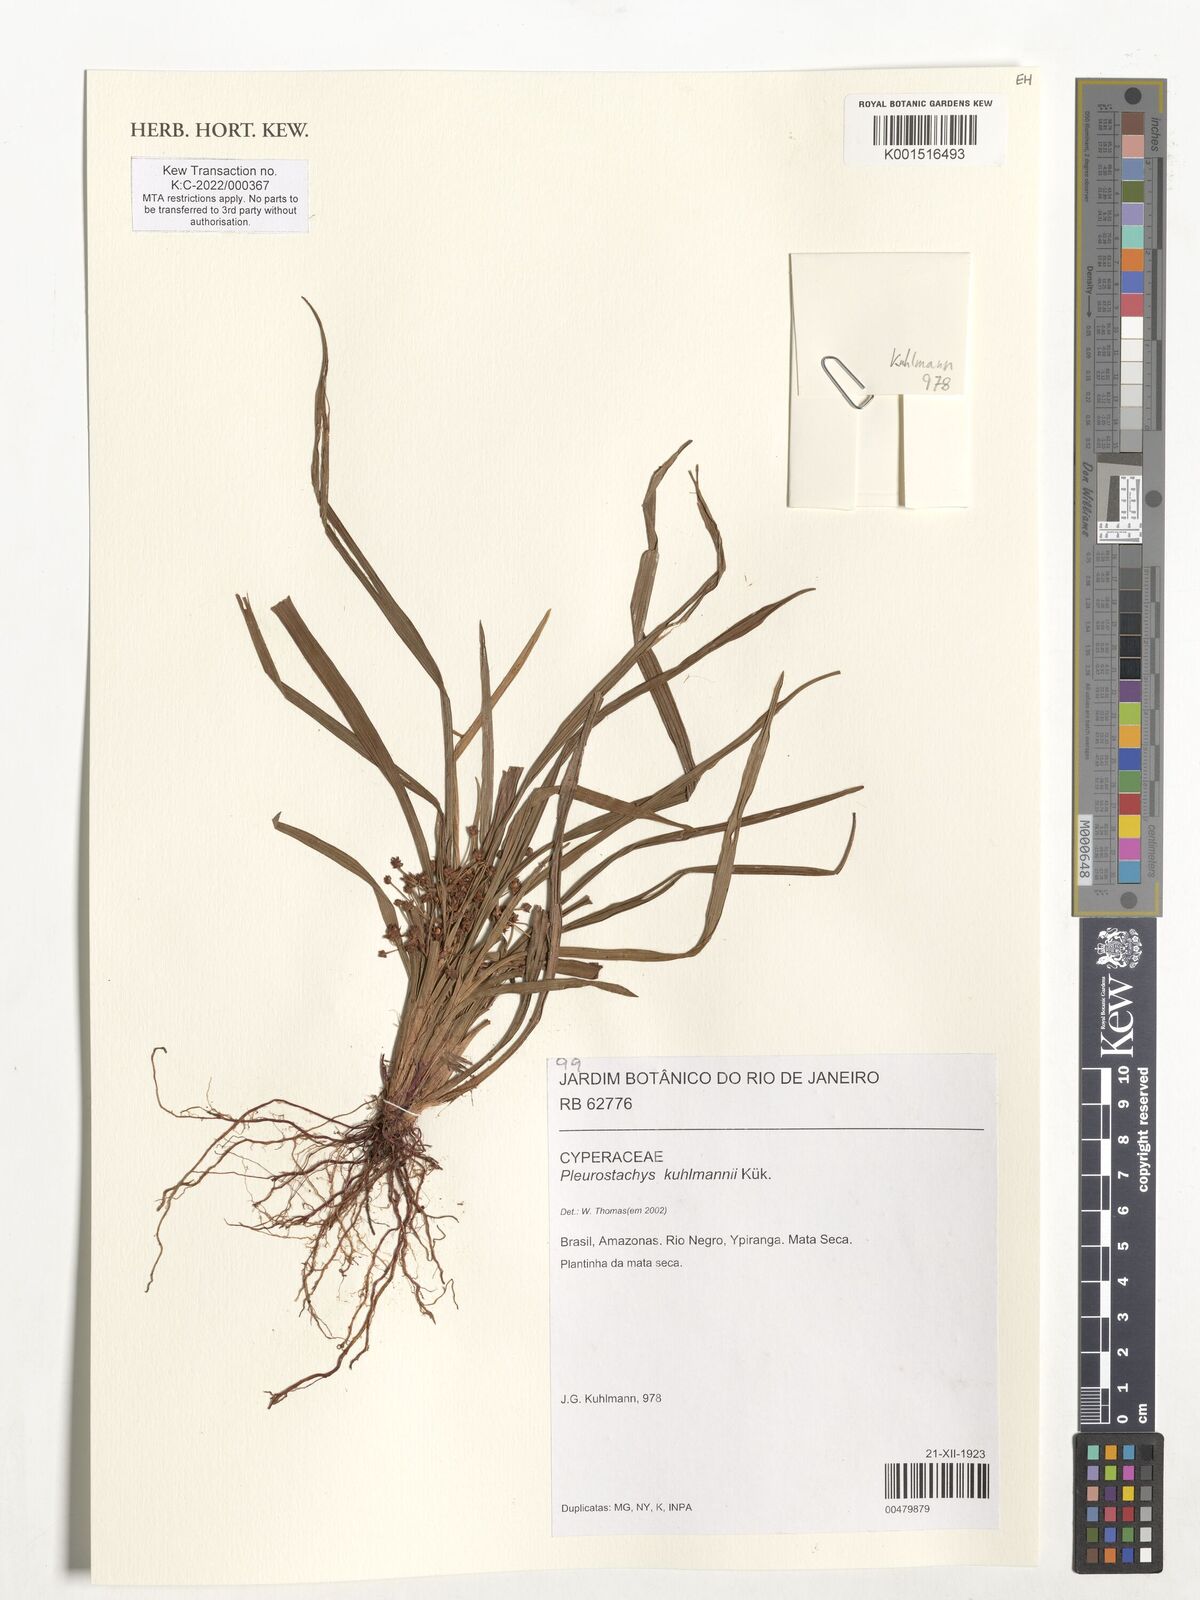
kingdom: Plantae
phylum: Tracheophyta
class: Liliopsida
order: Poales
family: Cyperaceae
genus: Calyptrocarya
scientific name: Calyptrocarya glomerulata
